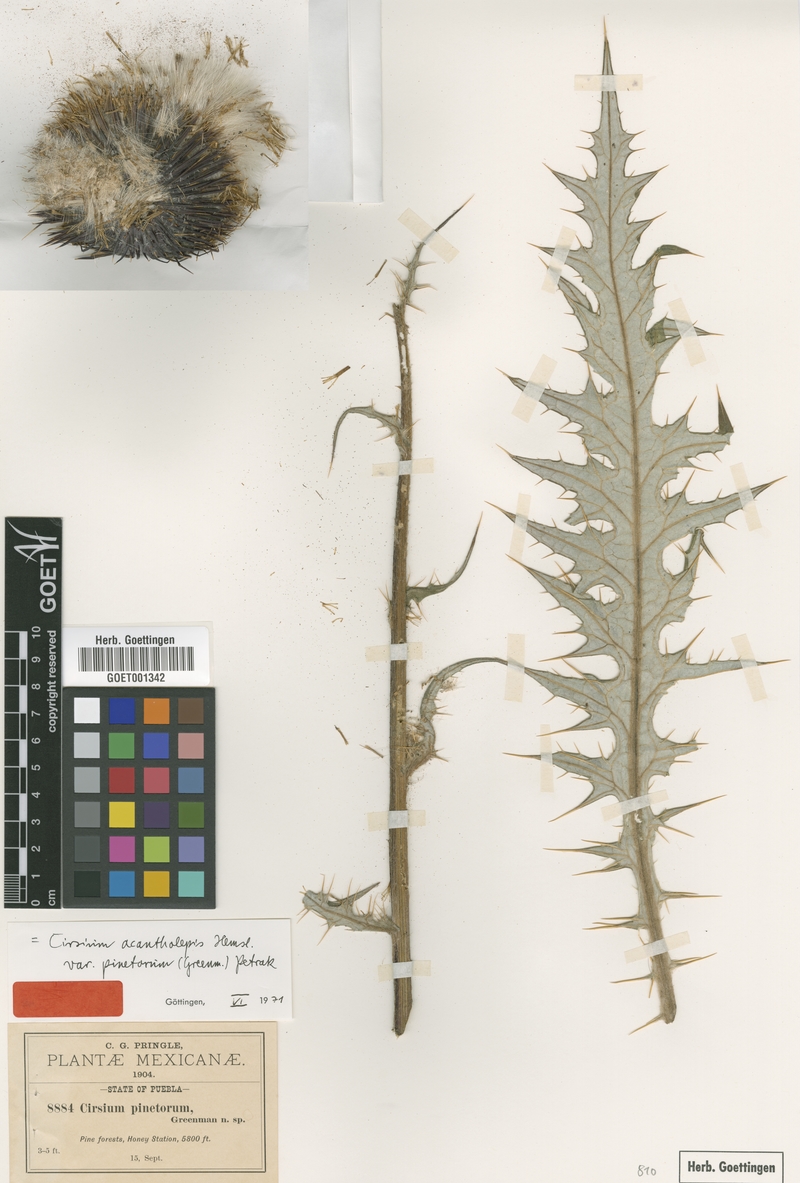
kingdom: Plantae
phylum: Tracheophyta
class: Magnoliopsida
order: Asterales
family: Asteraceae
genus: Cirsium
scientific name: Cirsium pinetorum
